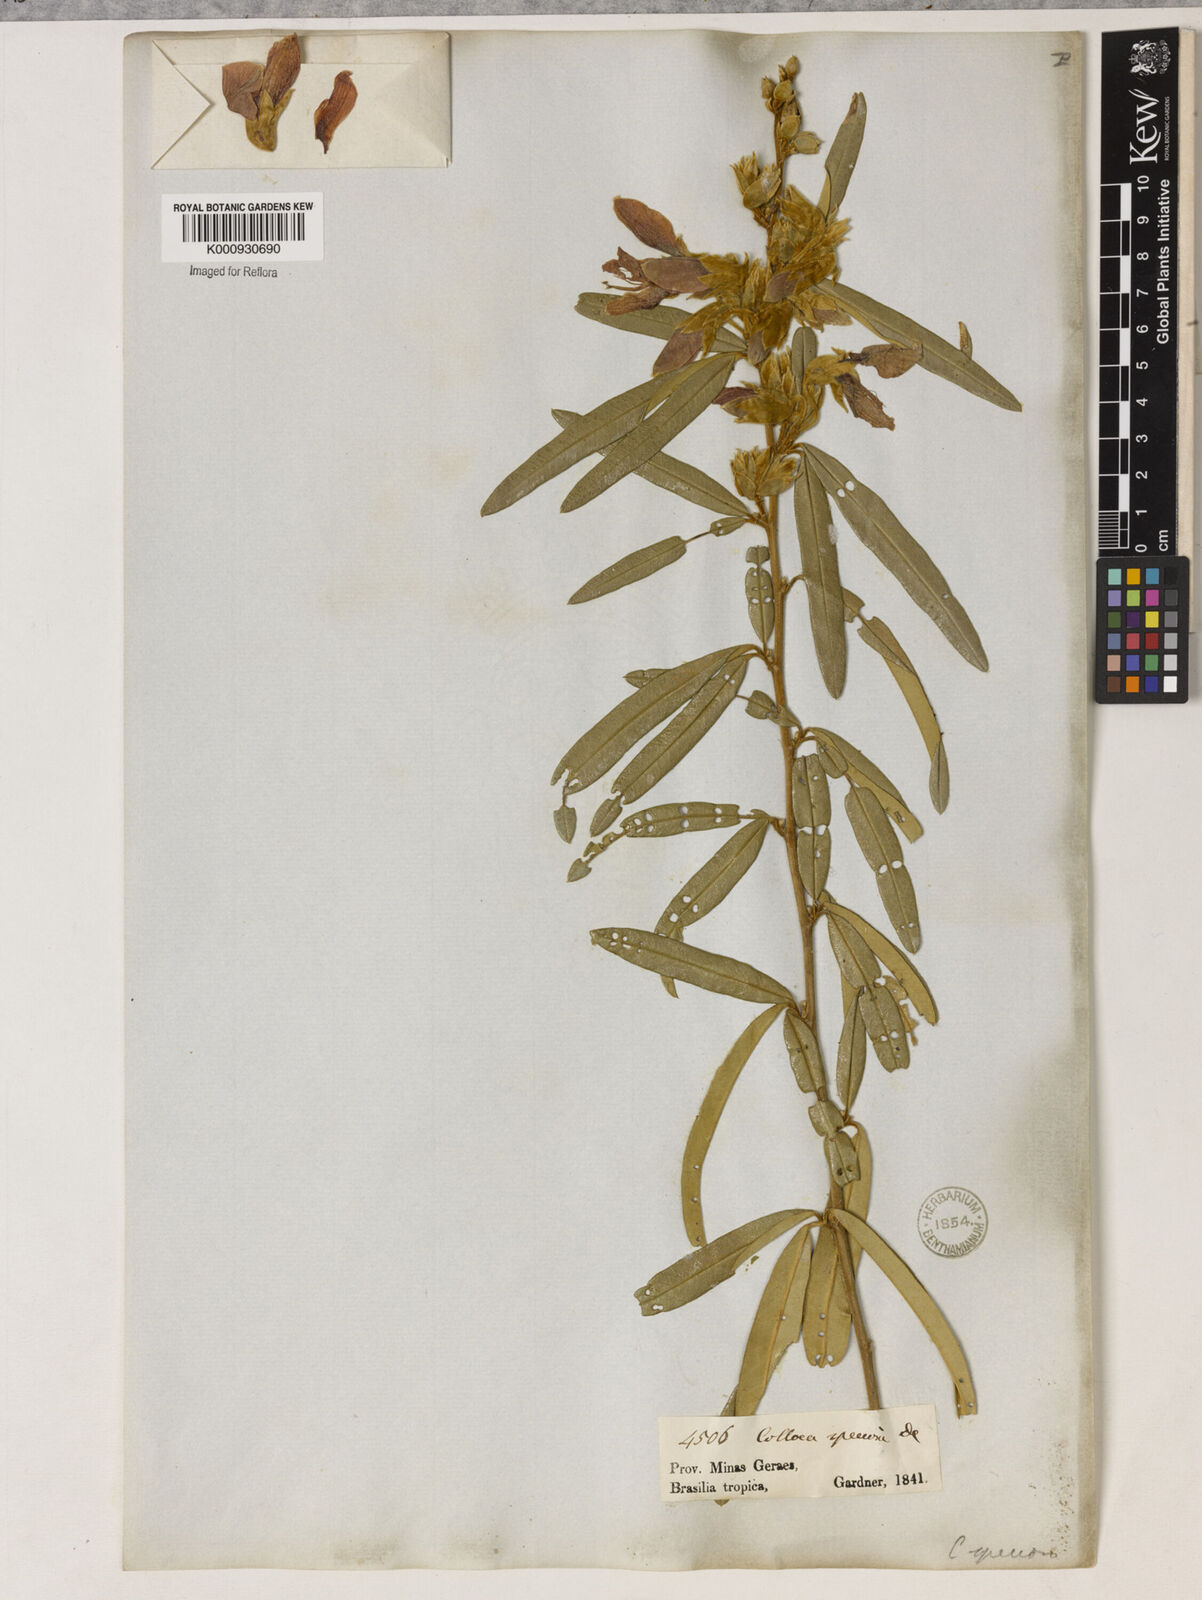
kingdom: Plantae
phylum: Tracheophyta
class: Magnoliopsida
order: Lamiales
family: Lamiaceae
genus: Coleus
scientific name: Coleus barbatus
